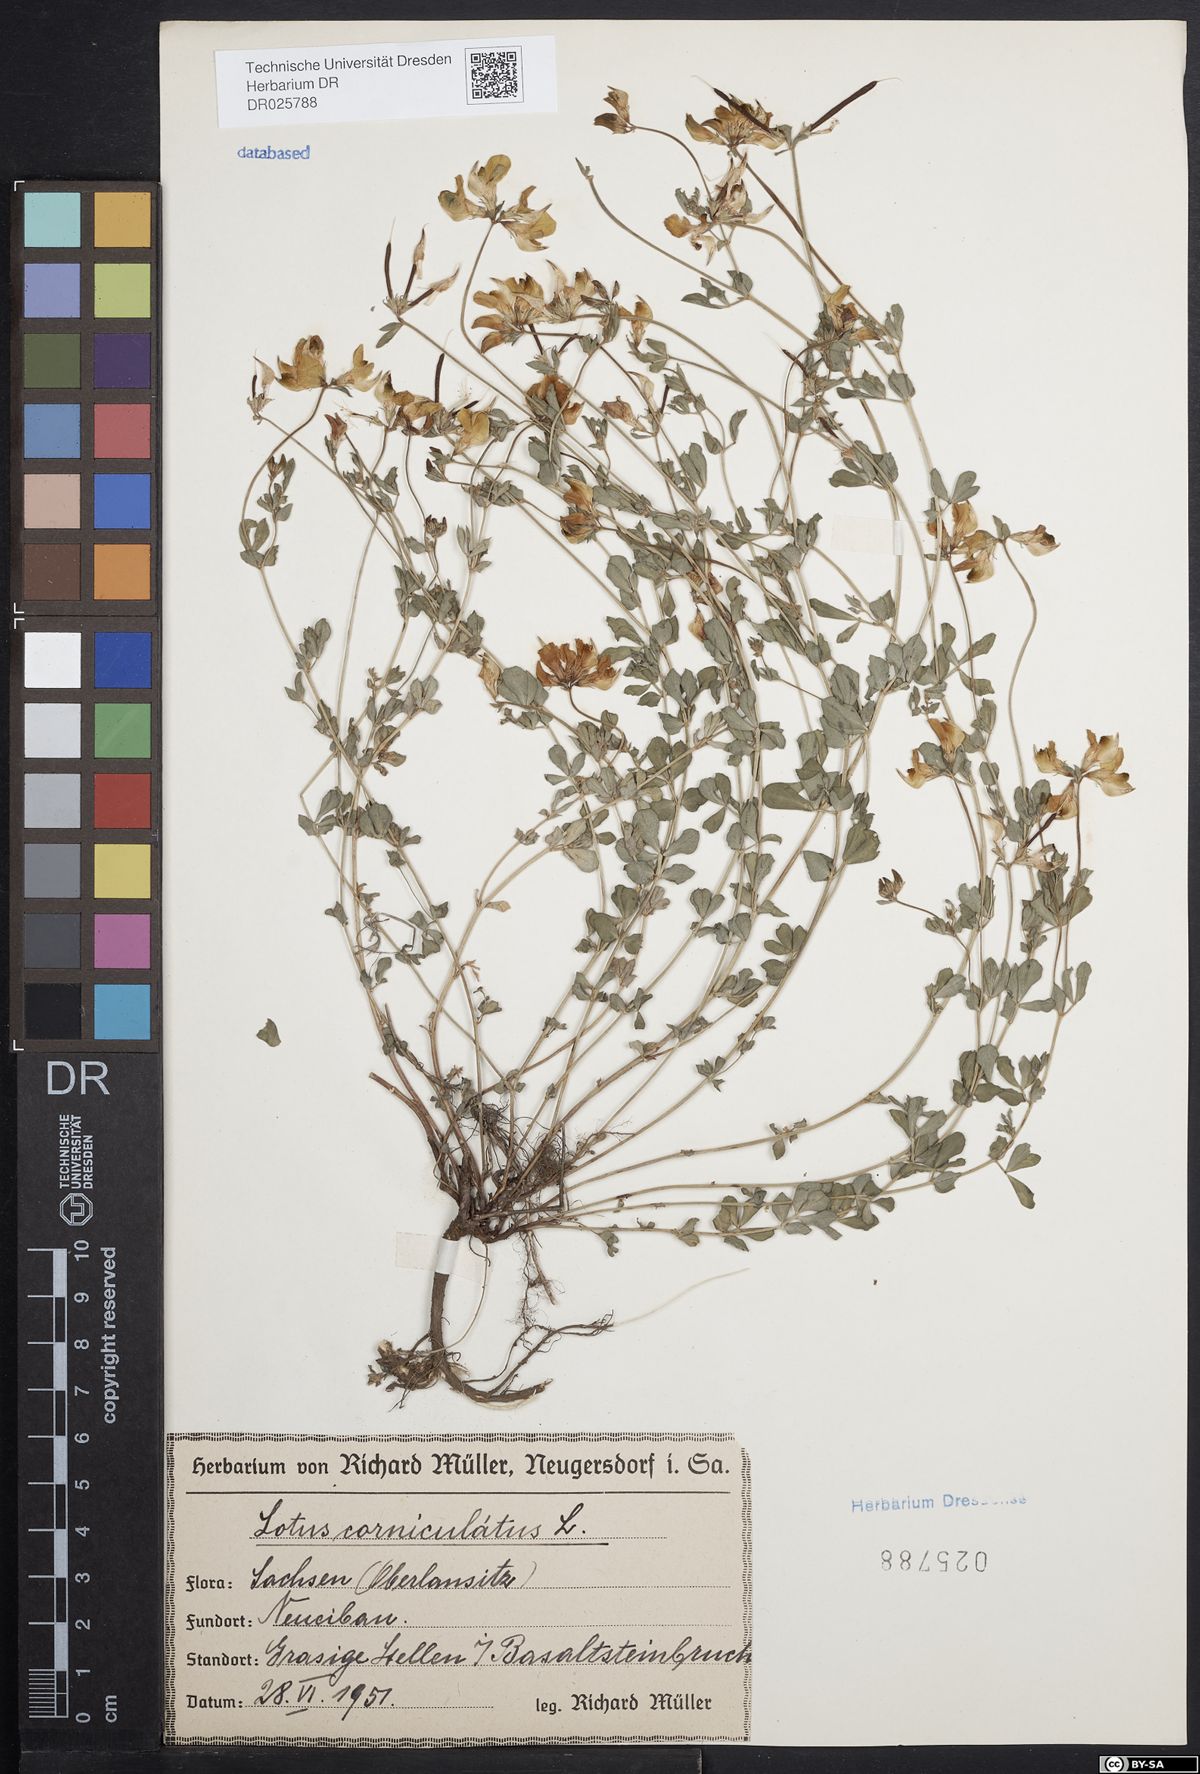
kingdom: Plantae
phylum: Tracheophyta
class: Magnoliopsida
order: Fabales
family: Fabaceae
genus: Lotus
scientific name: Lotus corniculatus
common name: Common bird's-foot-trefoil
